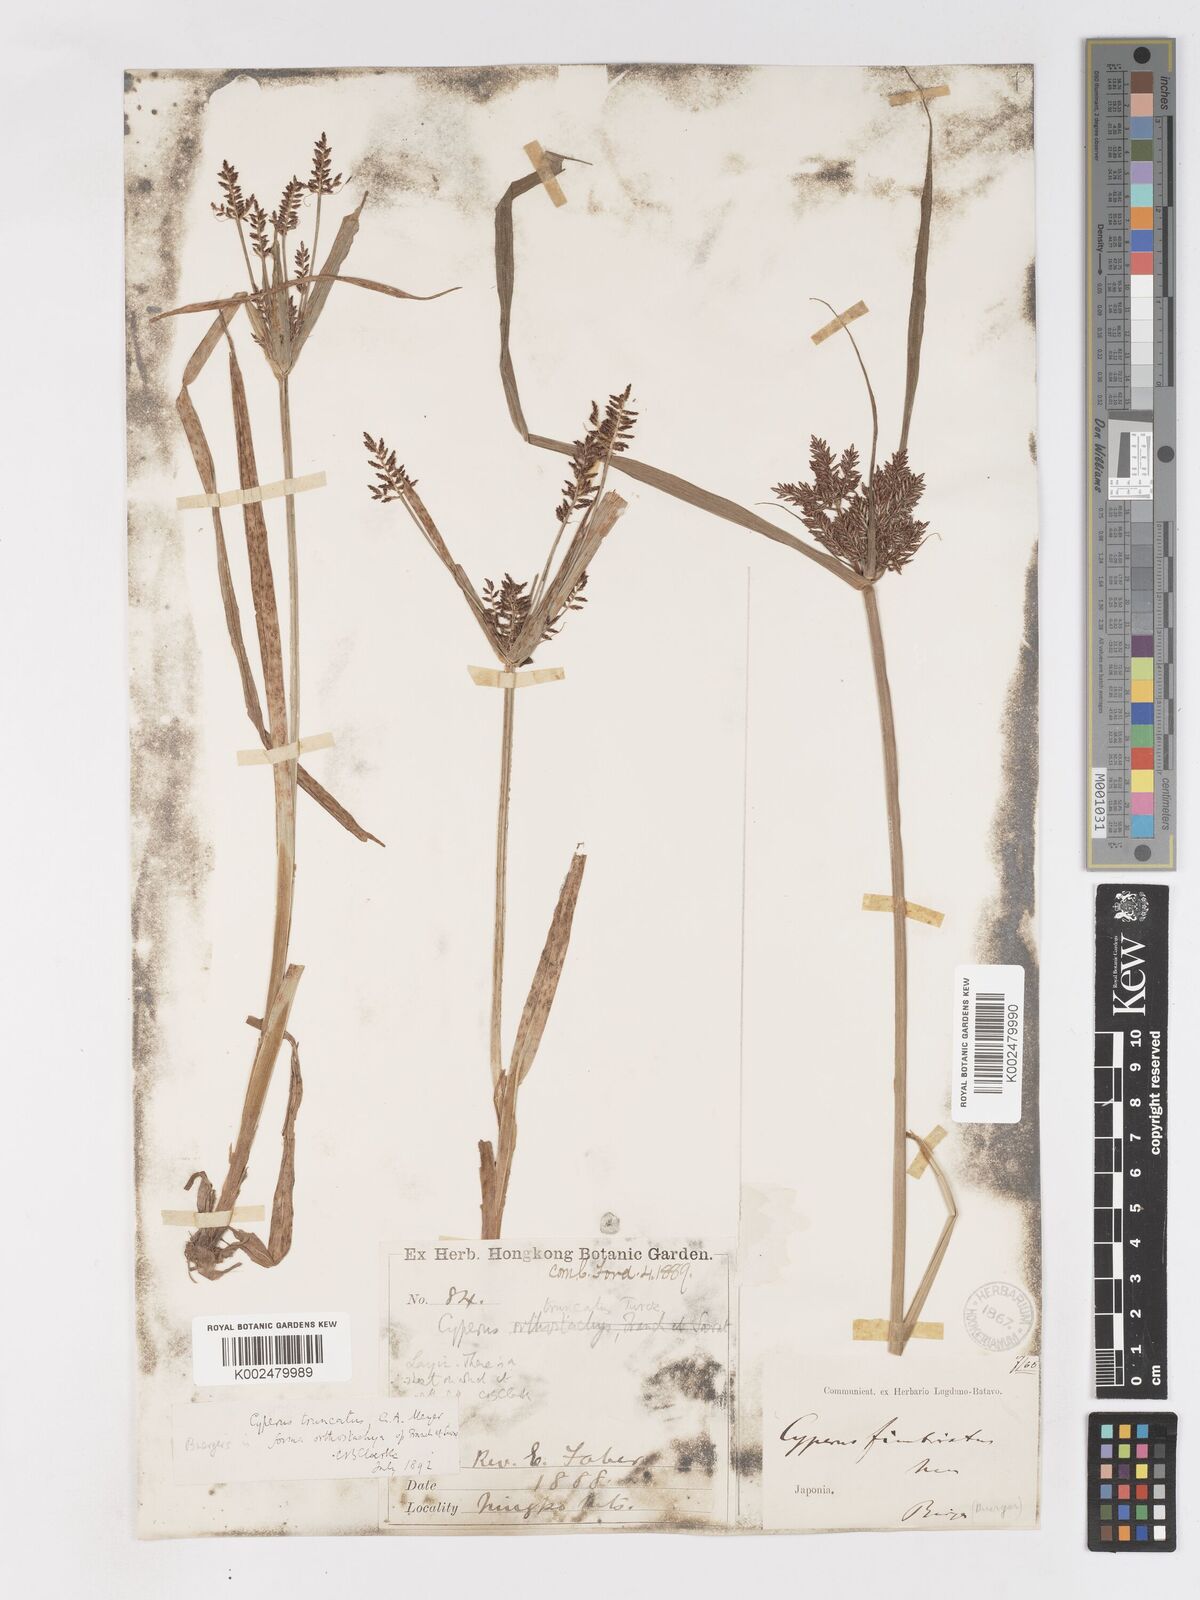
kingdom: Plantae
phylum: Tracheophyta
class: Liliopsida
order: Poales
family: Cyperaceae
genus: Cyperus
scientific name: Cyperus schimperianus
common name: Schimper flatsedge
